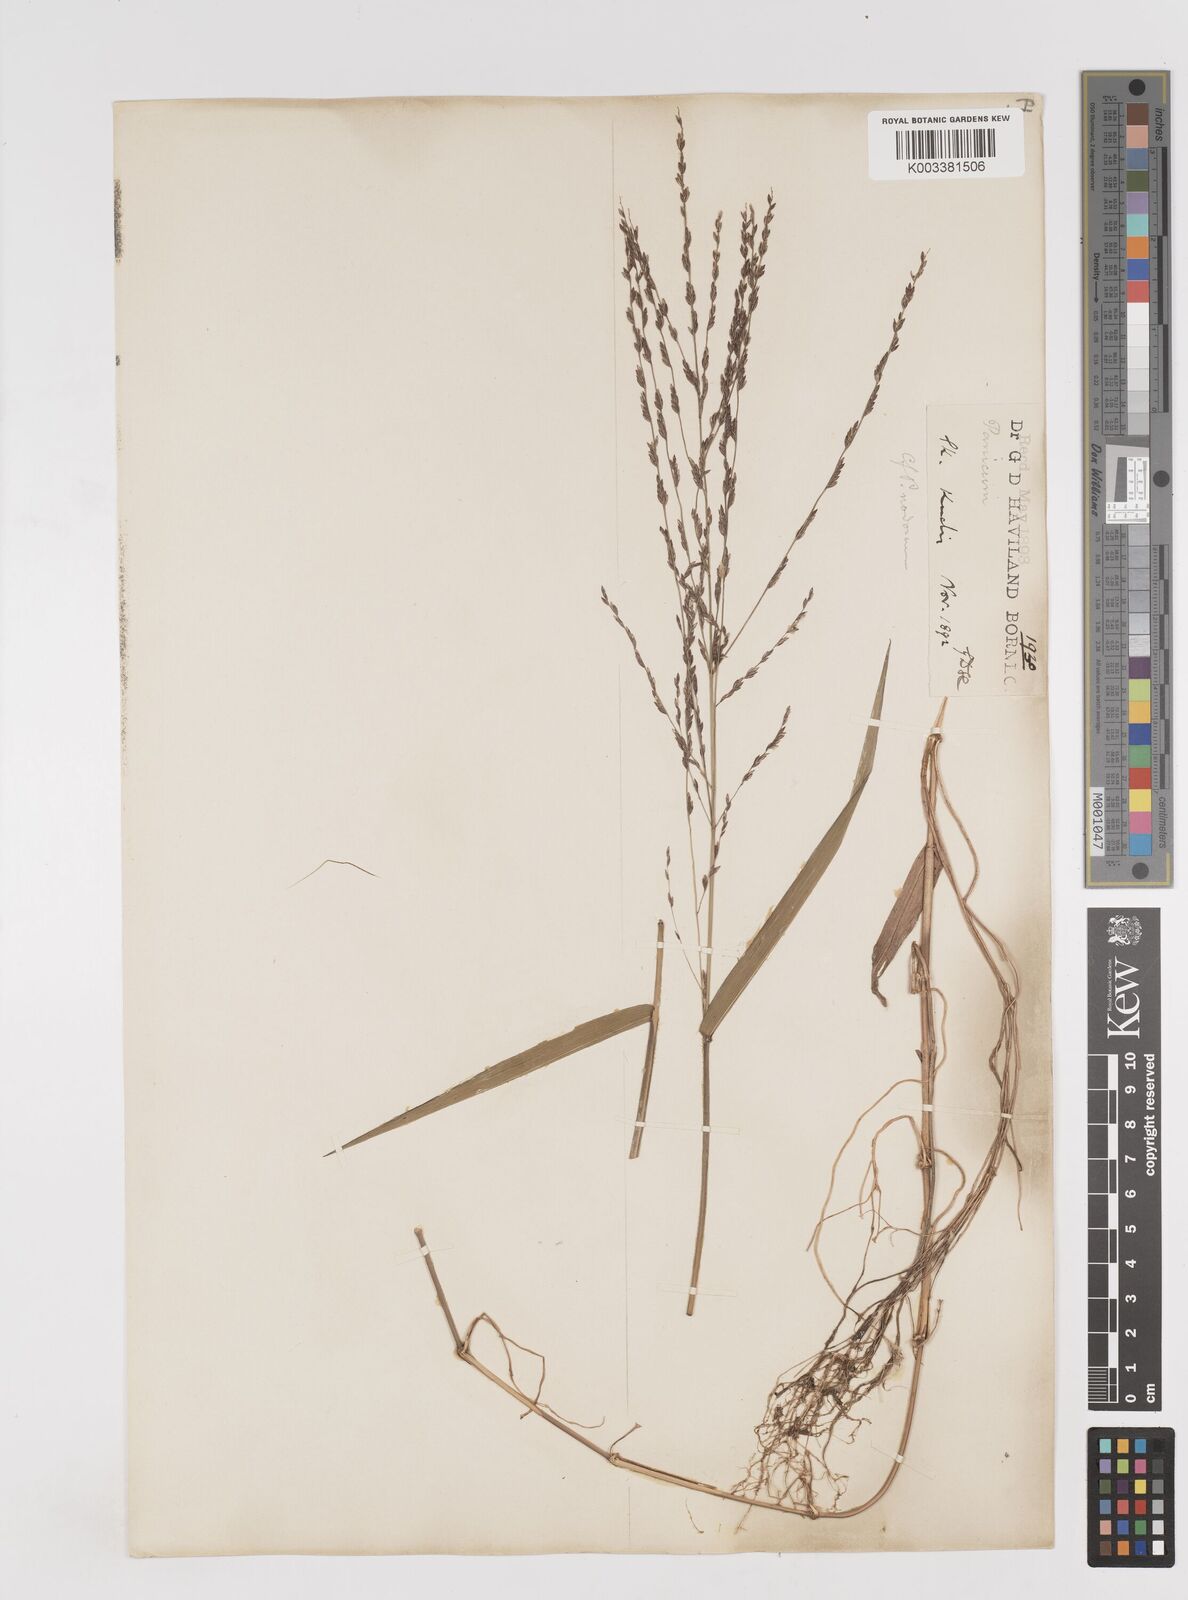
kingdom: Plantae
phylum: Tracheophyta
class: Liliopsida
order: Poales
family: Poaceae
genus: Ottochloa
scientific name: Ottochloa nodosa
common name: Slender-panic grass
